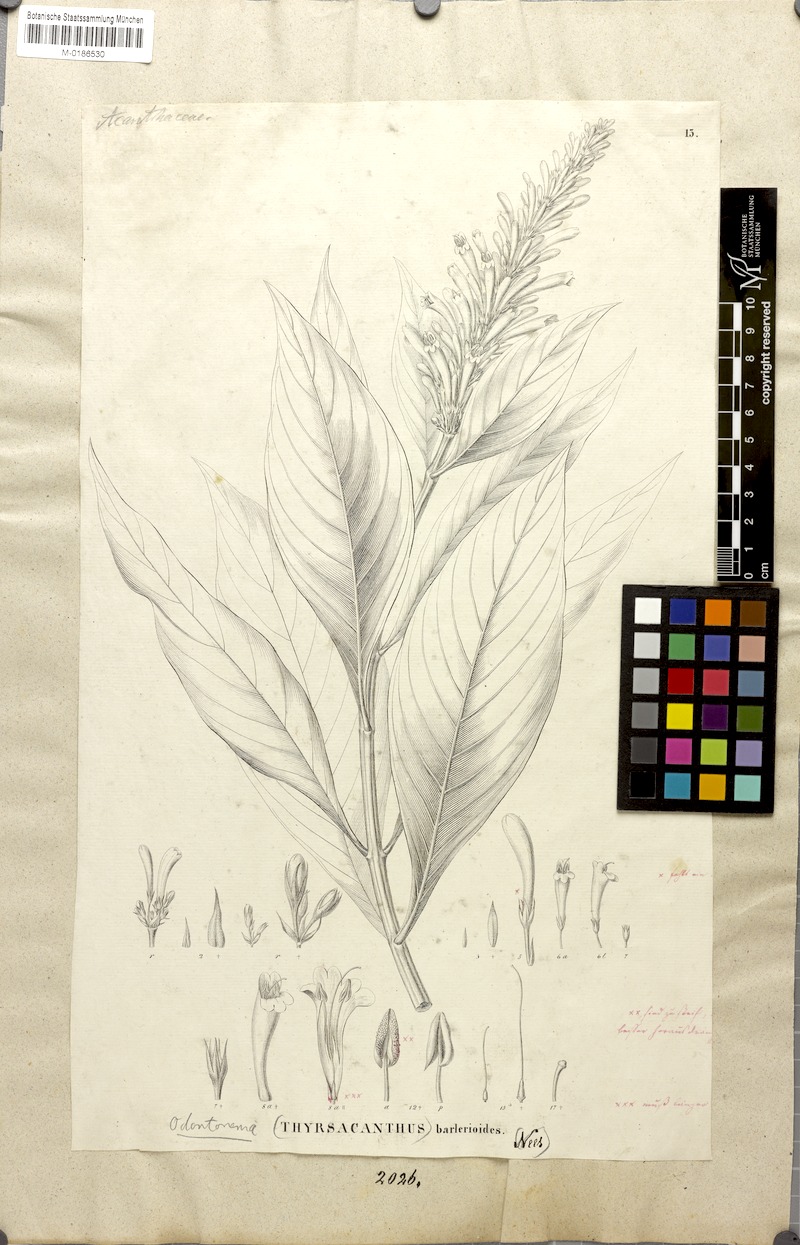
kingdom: Plantae
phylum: Tracheophyta
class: Magnoliopsida
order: Lamiales
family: Acanthaceae
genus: Odontonema
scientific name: Odontonema barleriodes
